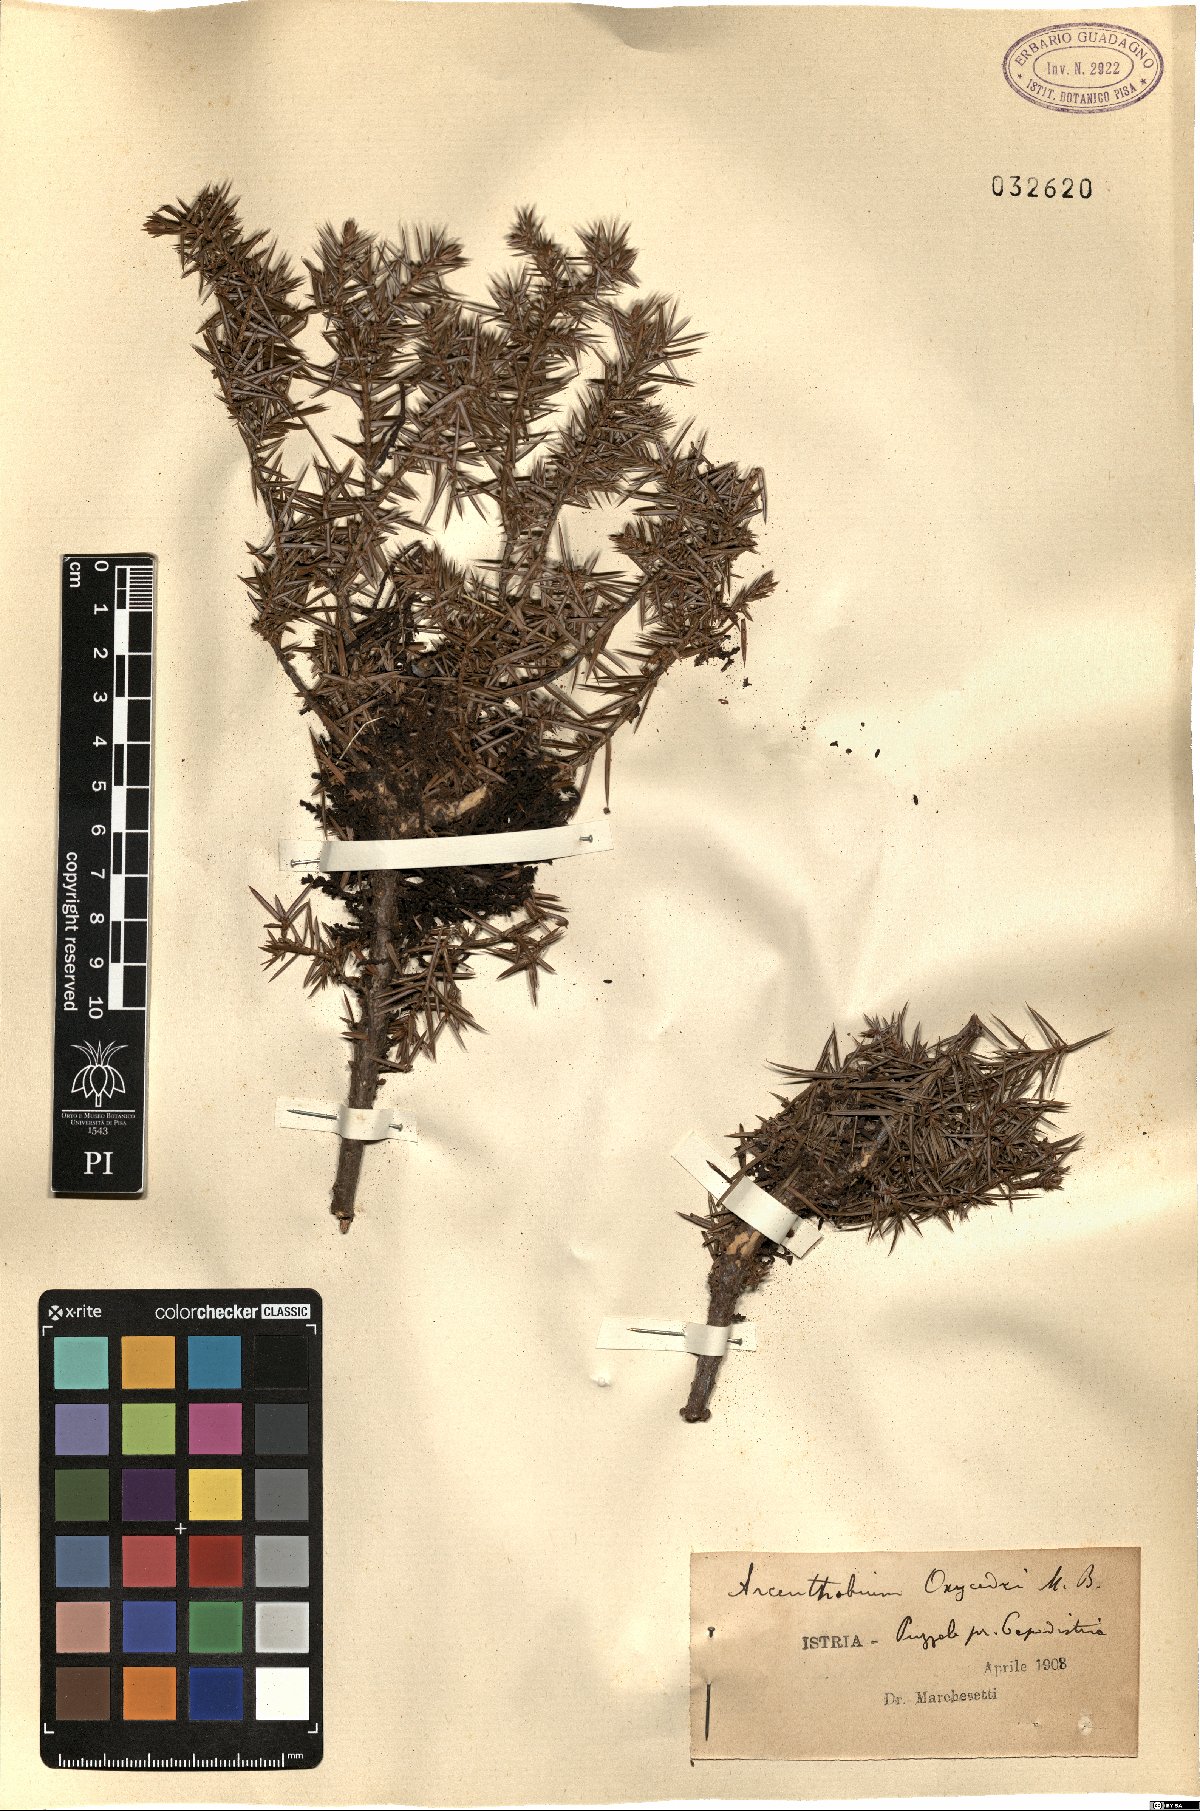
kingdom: Plantae
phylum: Tracheophyta
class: Magnoliopsida
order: Santalales
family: Viscaceae
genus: Arceuthobium
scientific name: Arceuthobium oxycedri
